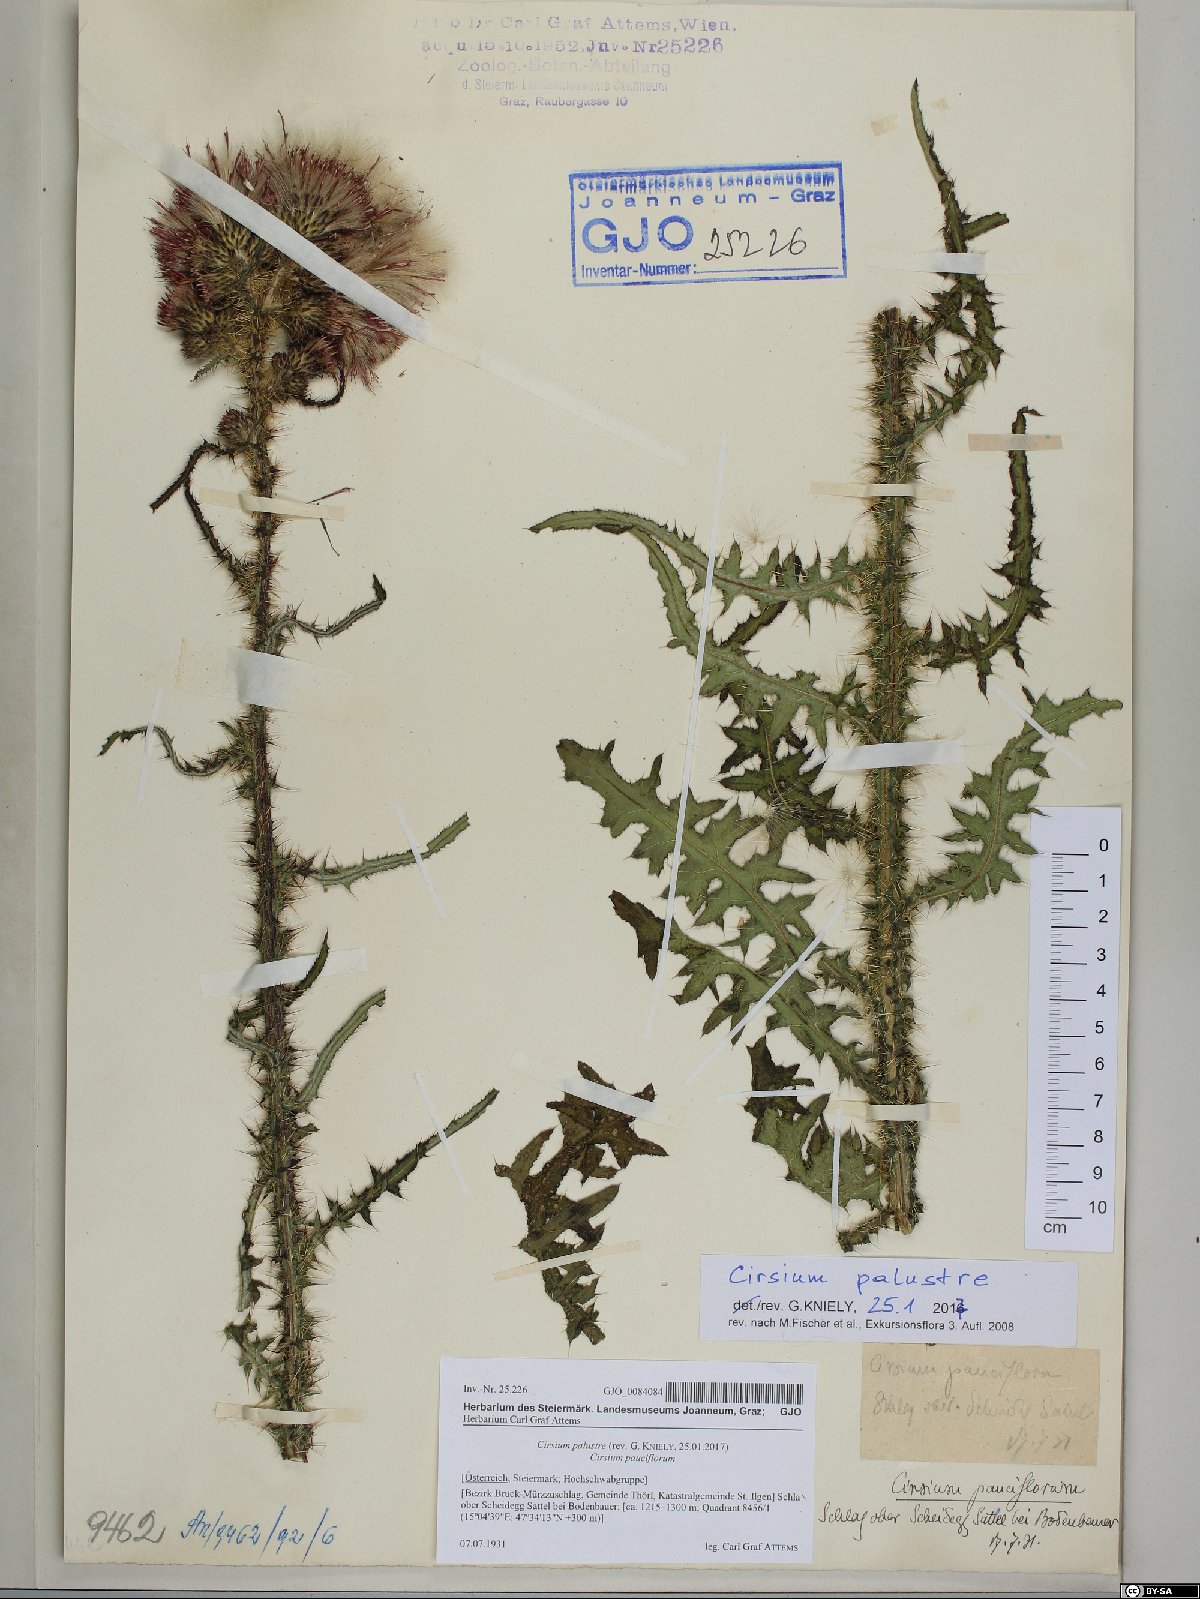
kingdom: Plantae
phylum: Tracheophyta
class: Magnoliopsida
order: Asterales
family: Asteraceae
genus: Cirsium
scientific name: Cirsium palustre
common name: Marsh thistle
